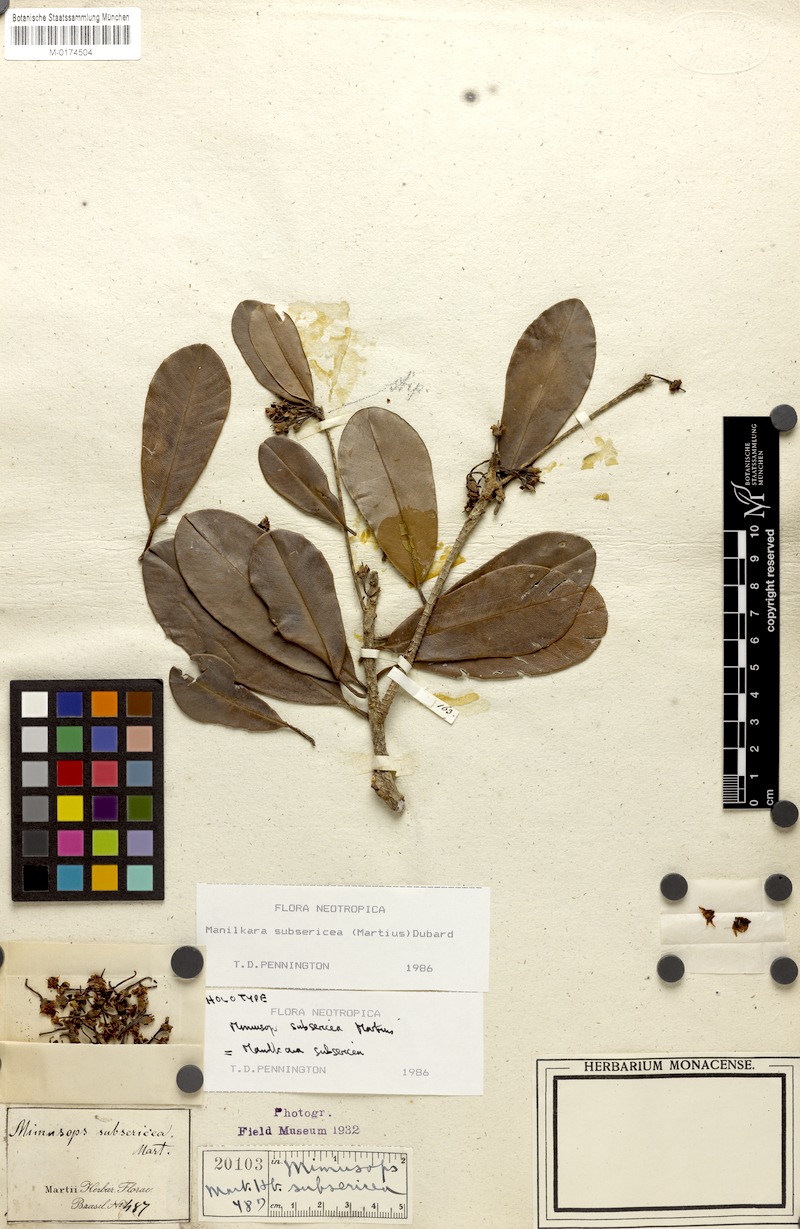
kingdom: Plantae
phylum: Tracheophyta
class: Magnoliopsida
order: Ericales
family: Sapotaceae
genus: Manilkara
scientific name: Manilkara subsericea
